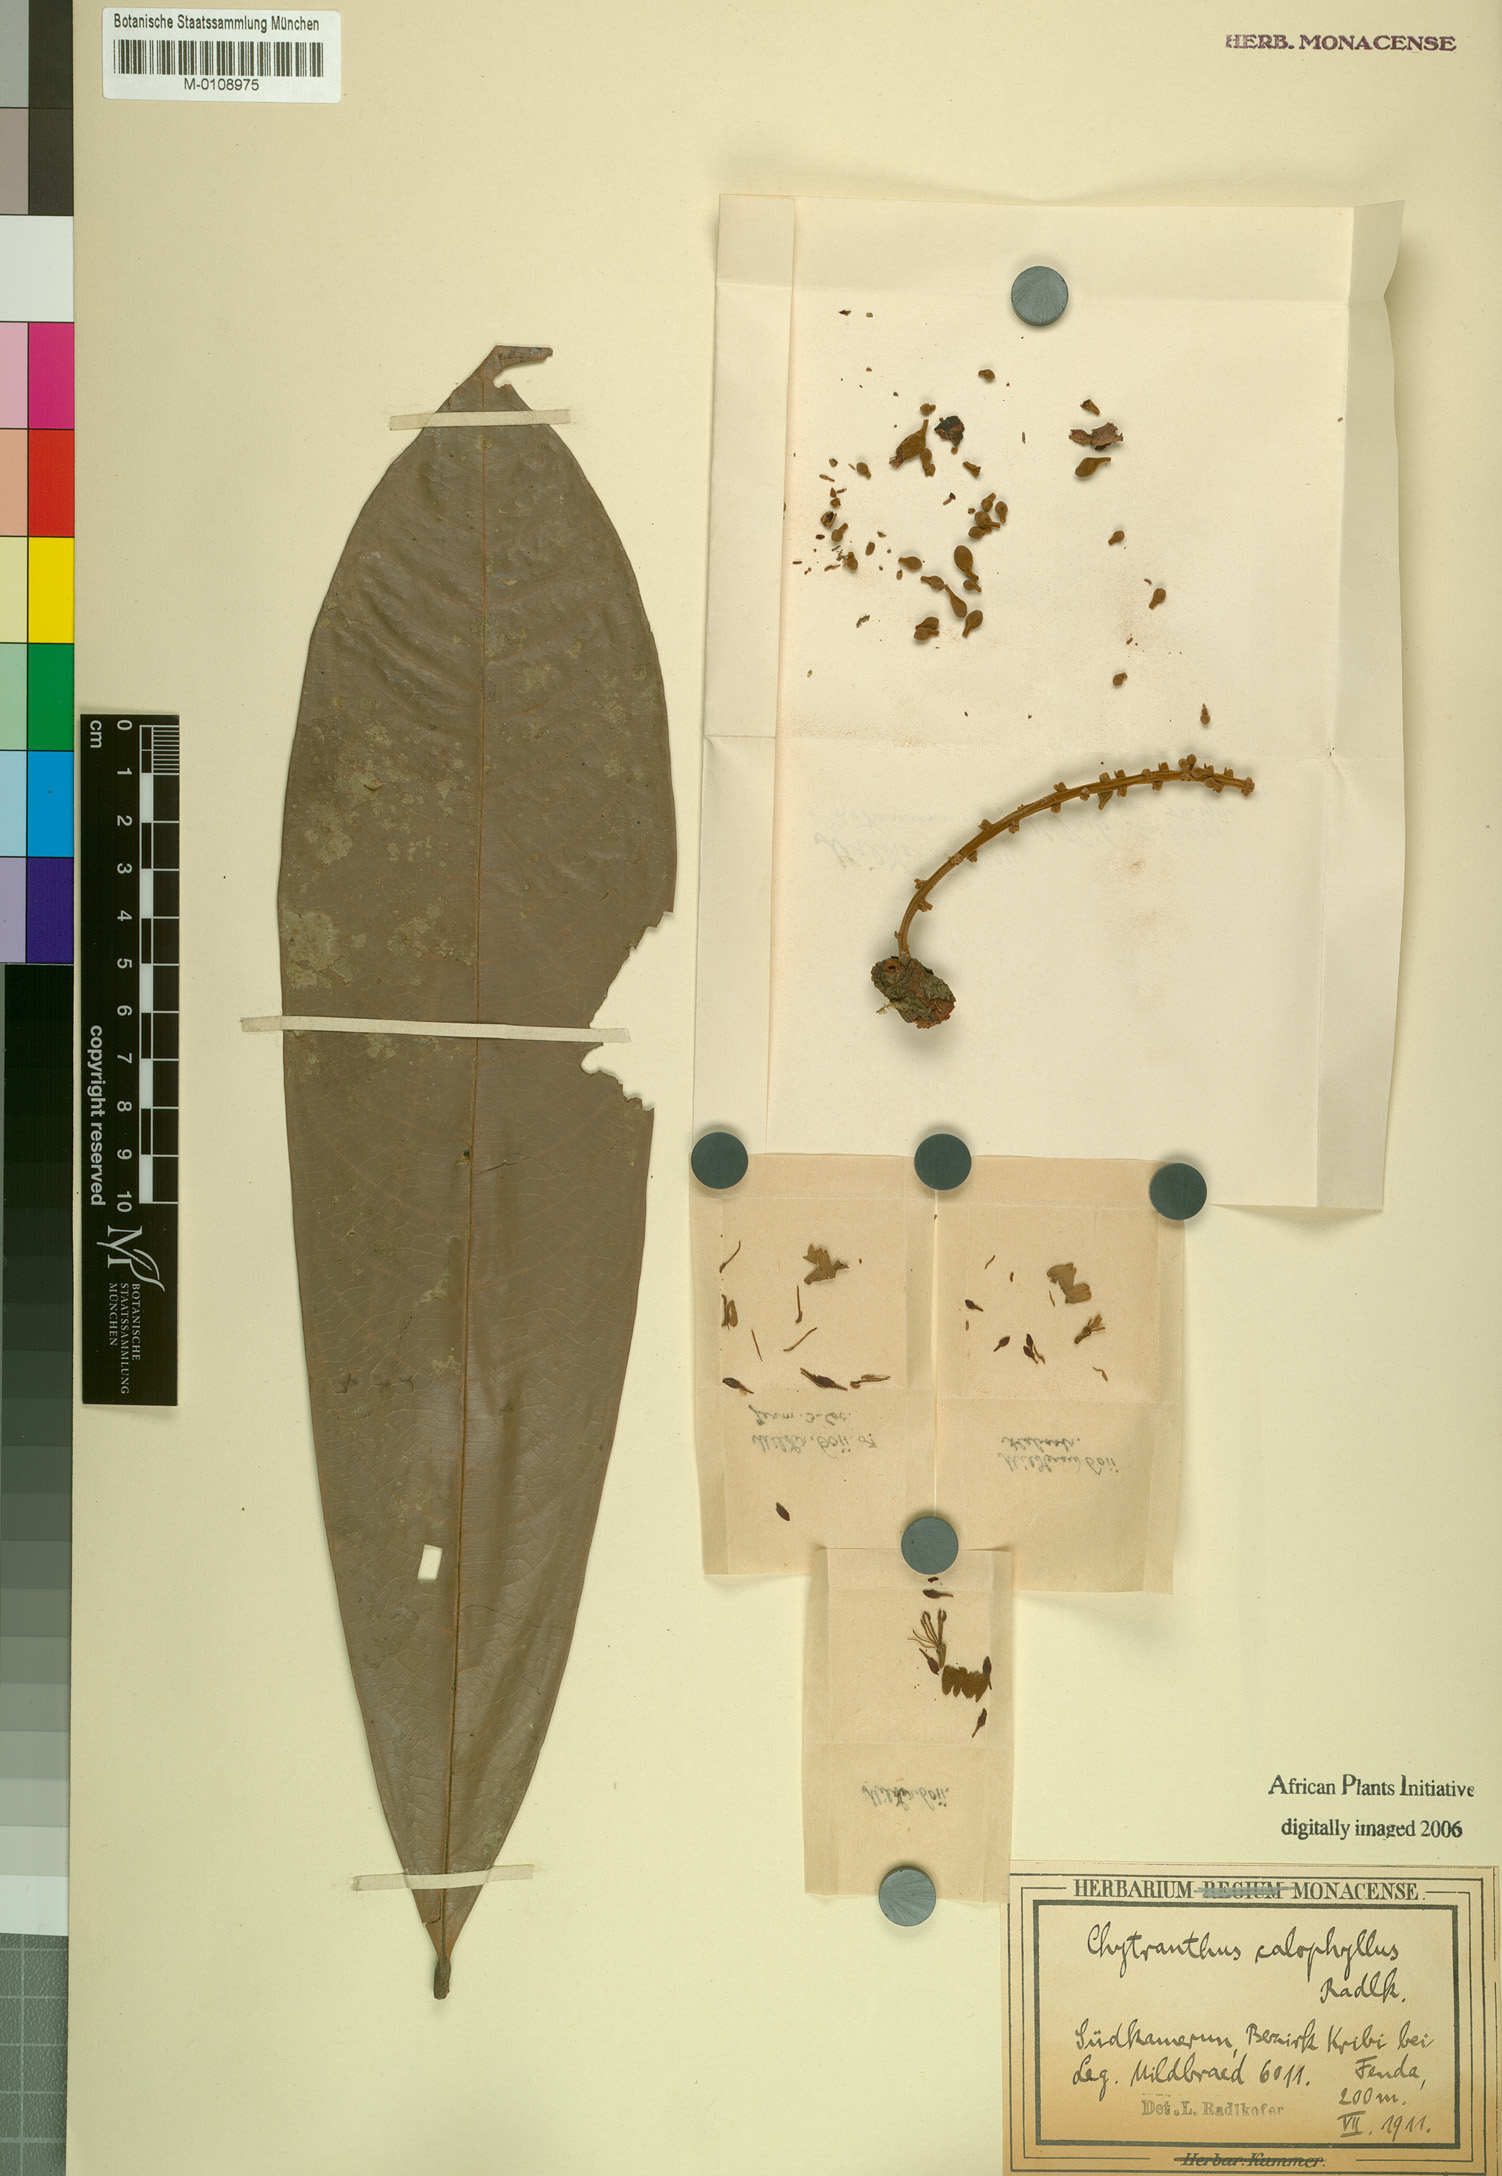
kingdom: Plantae
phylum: Tracheophyta
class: Magnoliopsida
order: Sapindales
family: Sapindaceae
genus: Chytranthus
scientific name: Chytranthus calophyllus
